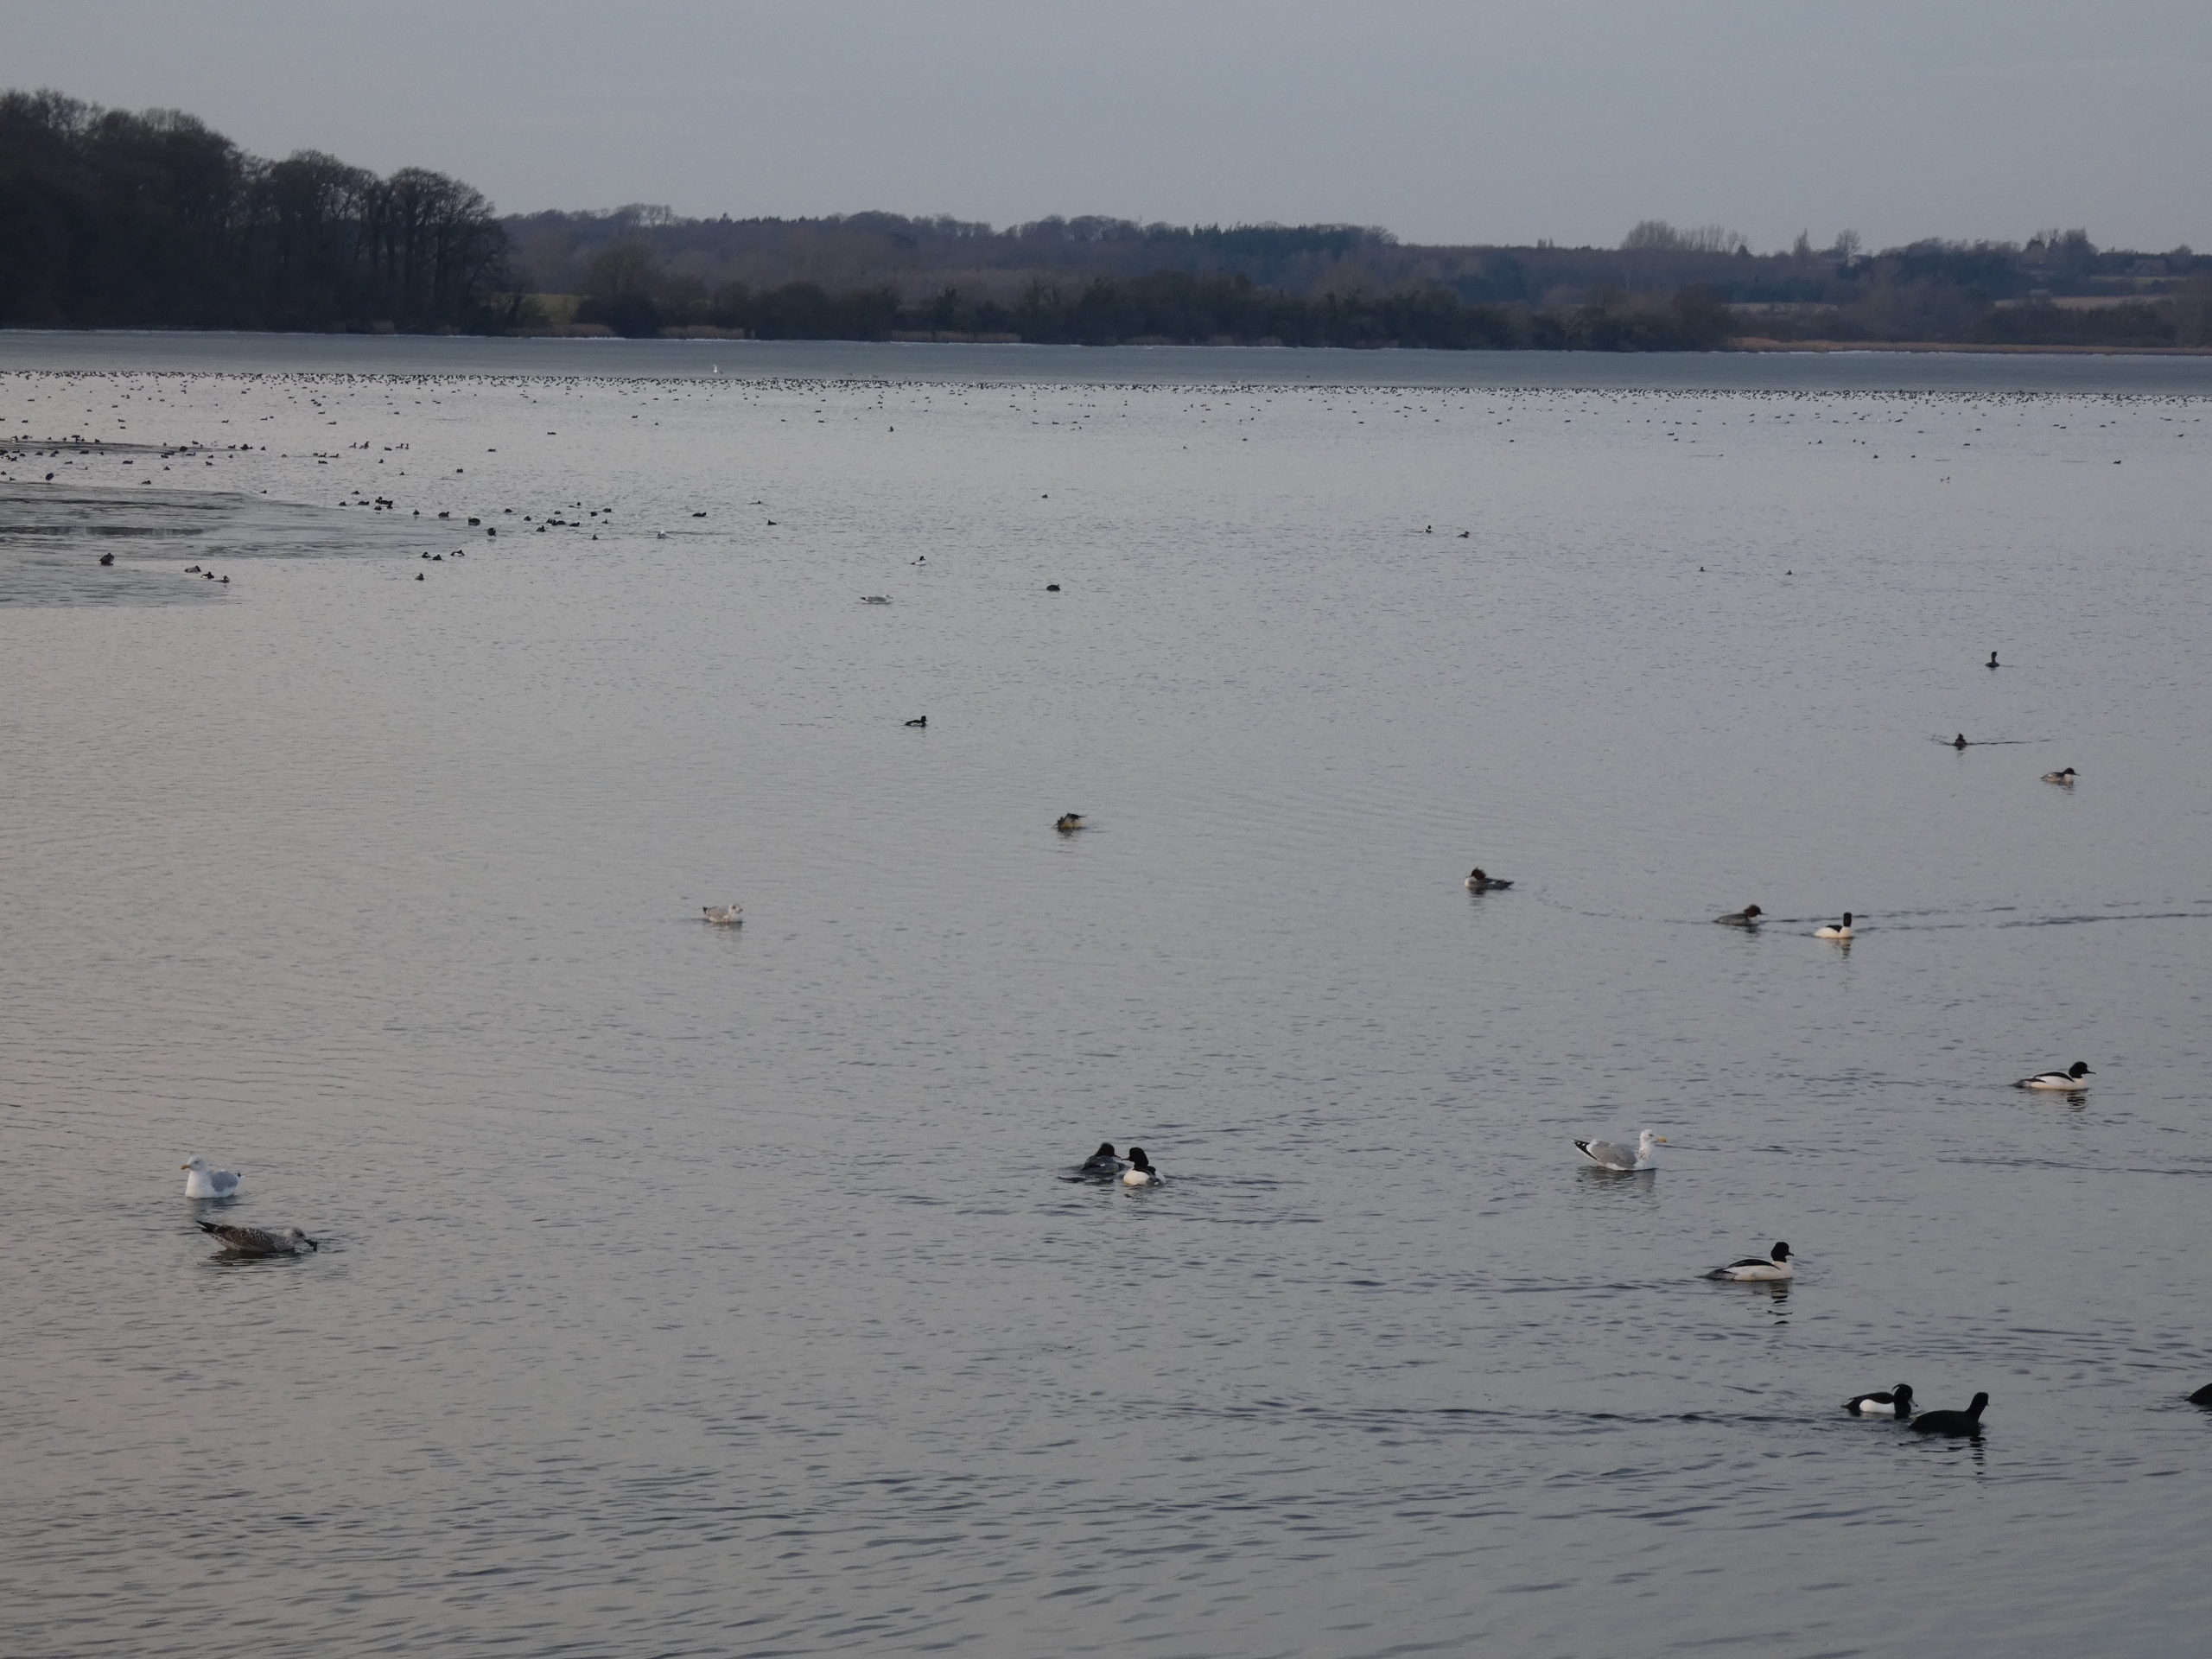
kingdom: Animalia
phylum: Chordata
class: Aves
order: Anseriformes
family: Anatidae
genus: Mergus
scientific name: Mergus merganser
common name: Stor skallesluger
